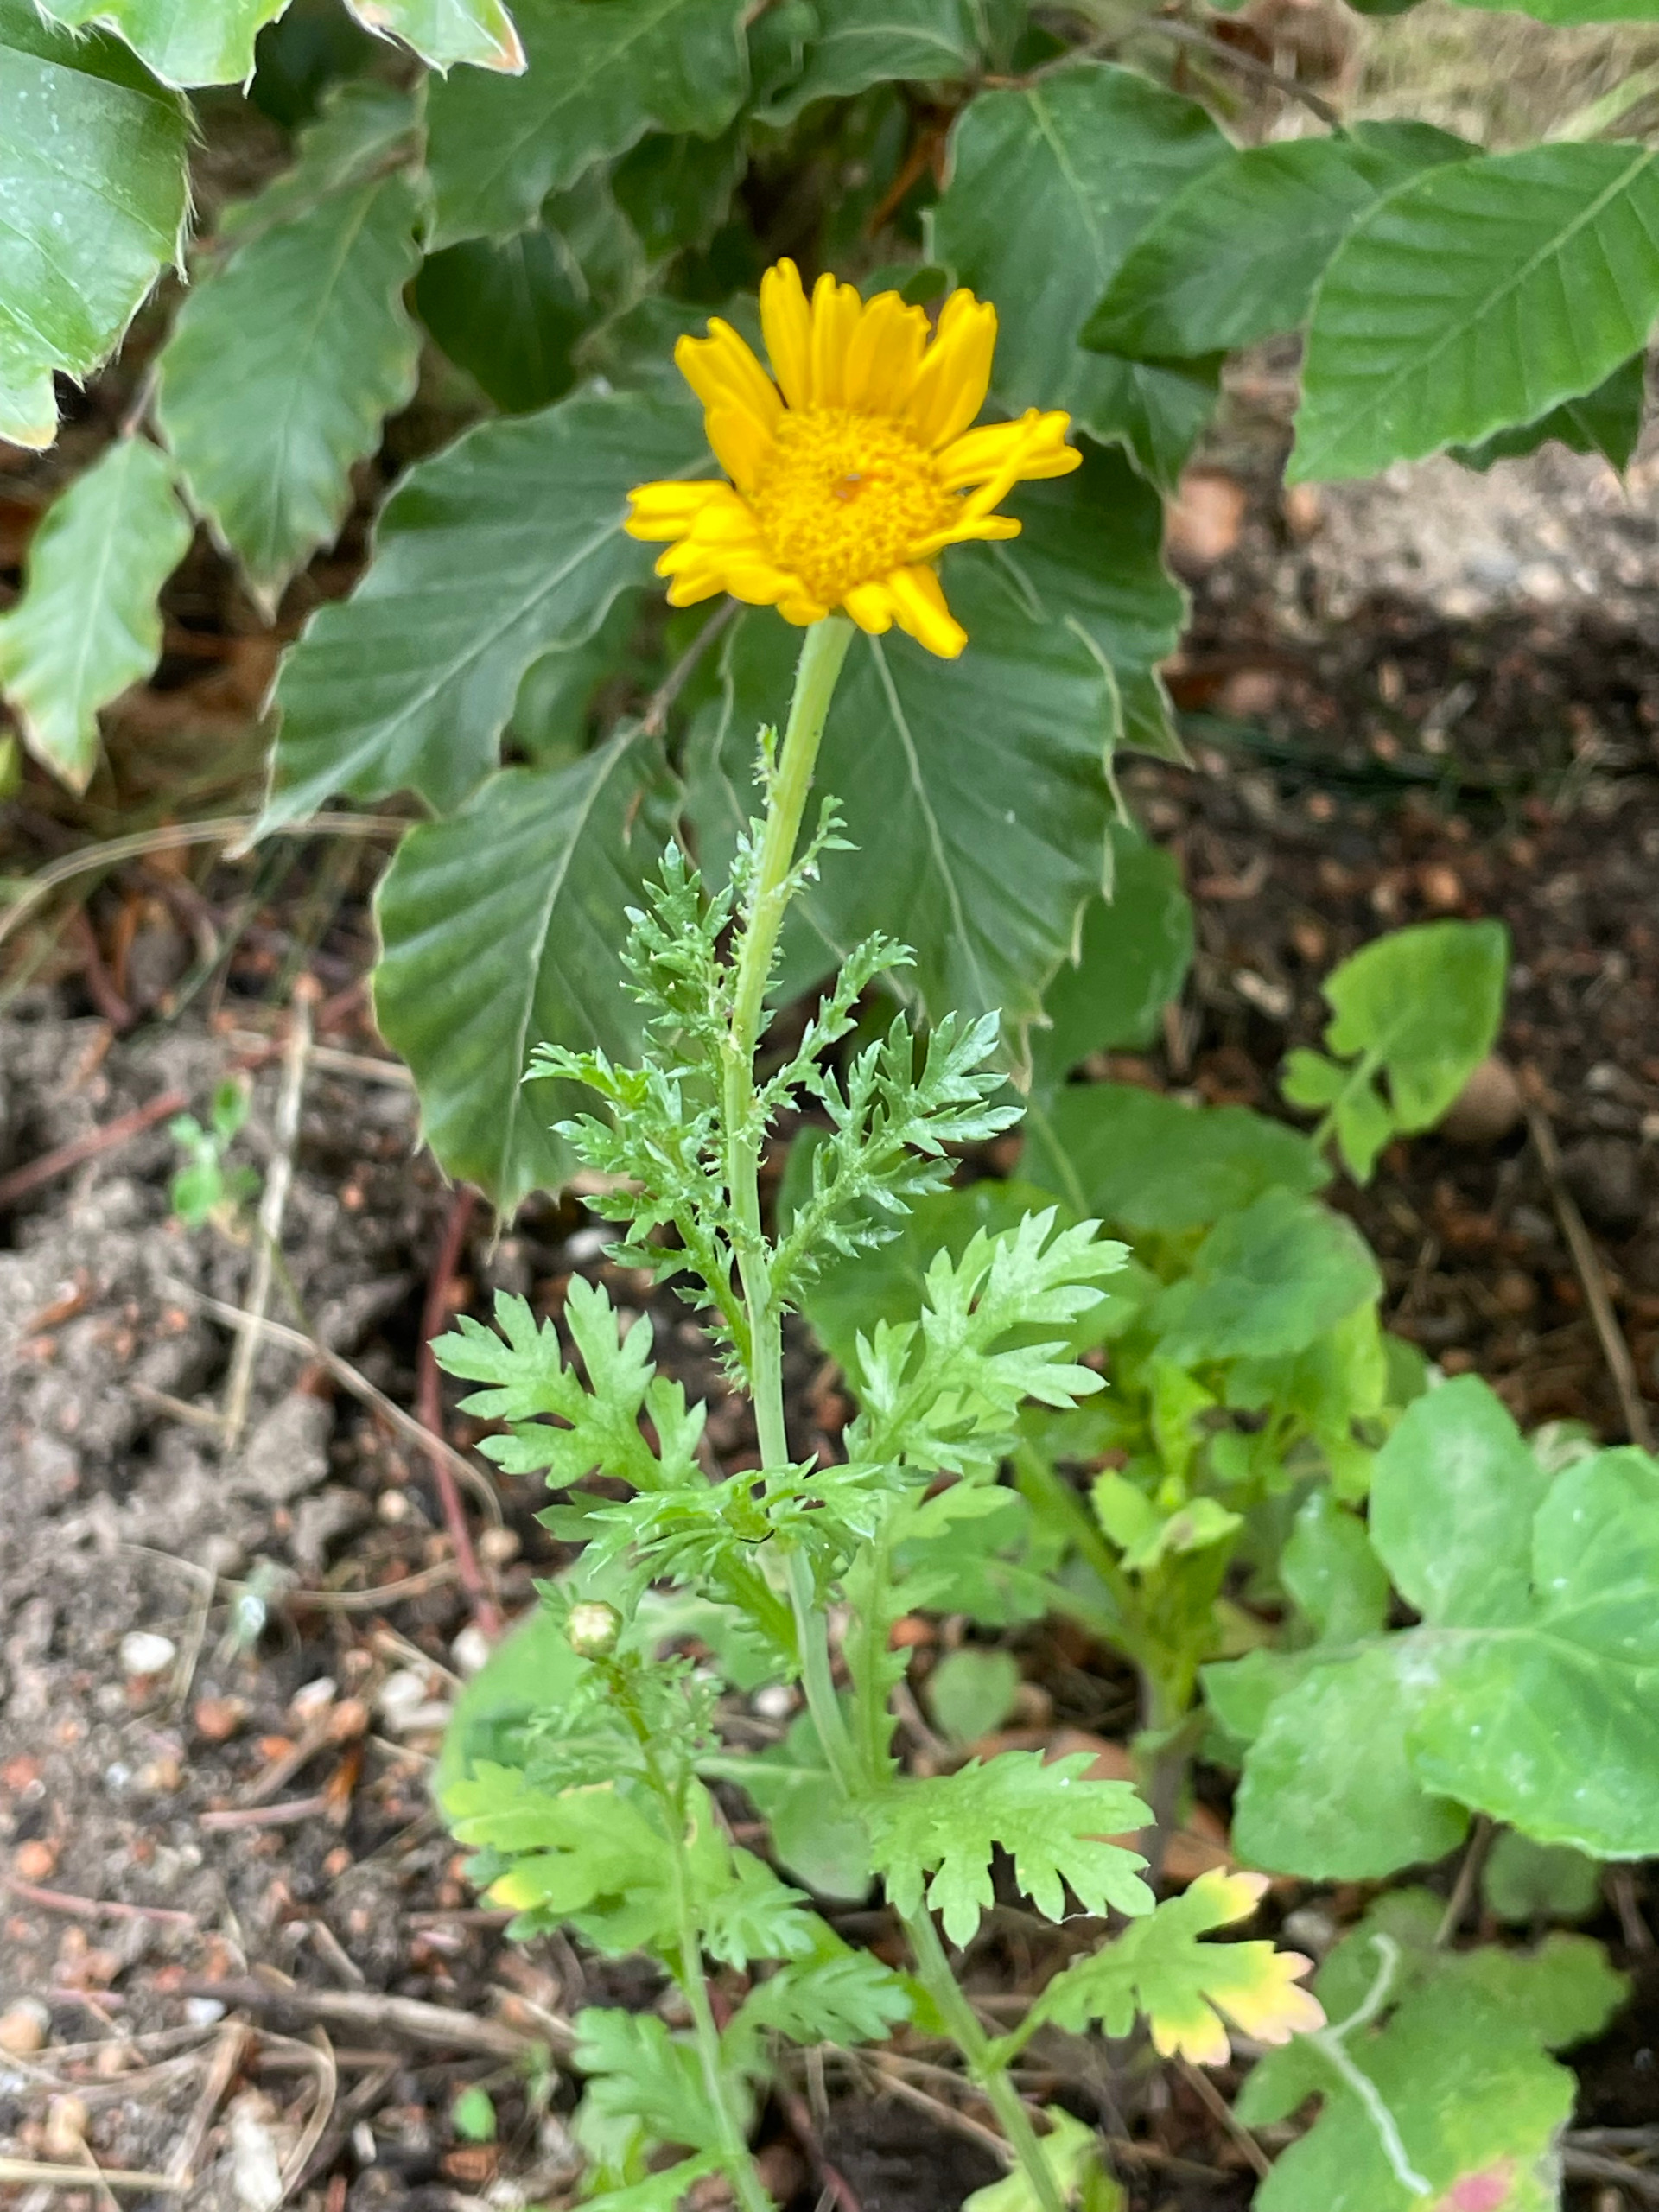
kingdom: Plantae
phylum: Tracheophyta
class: Magnoliopsida
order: Asterales
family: Asteraceae
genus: Glebionis
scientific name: Glebionis coronaria
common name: Kron-okseøje
